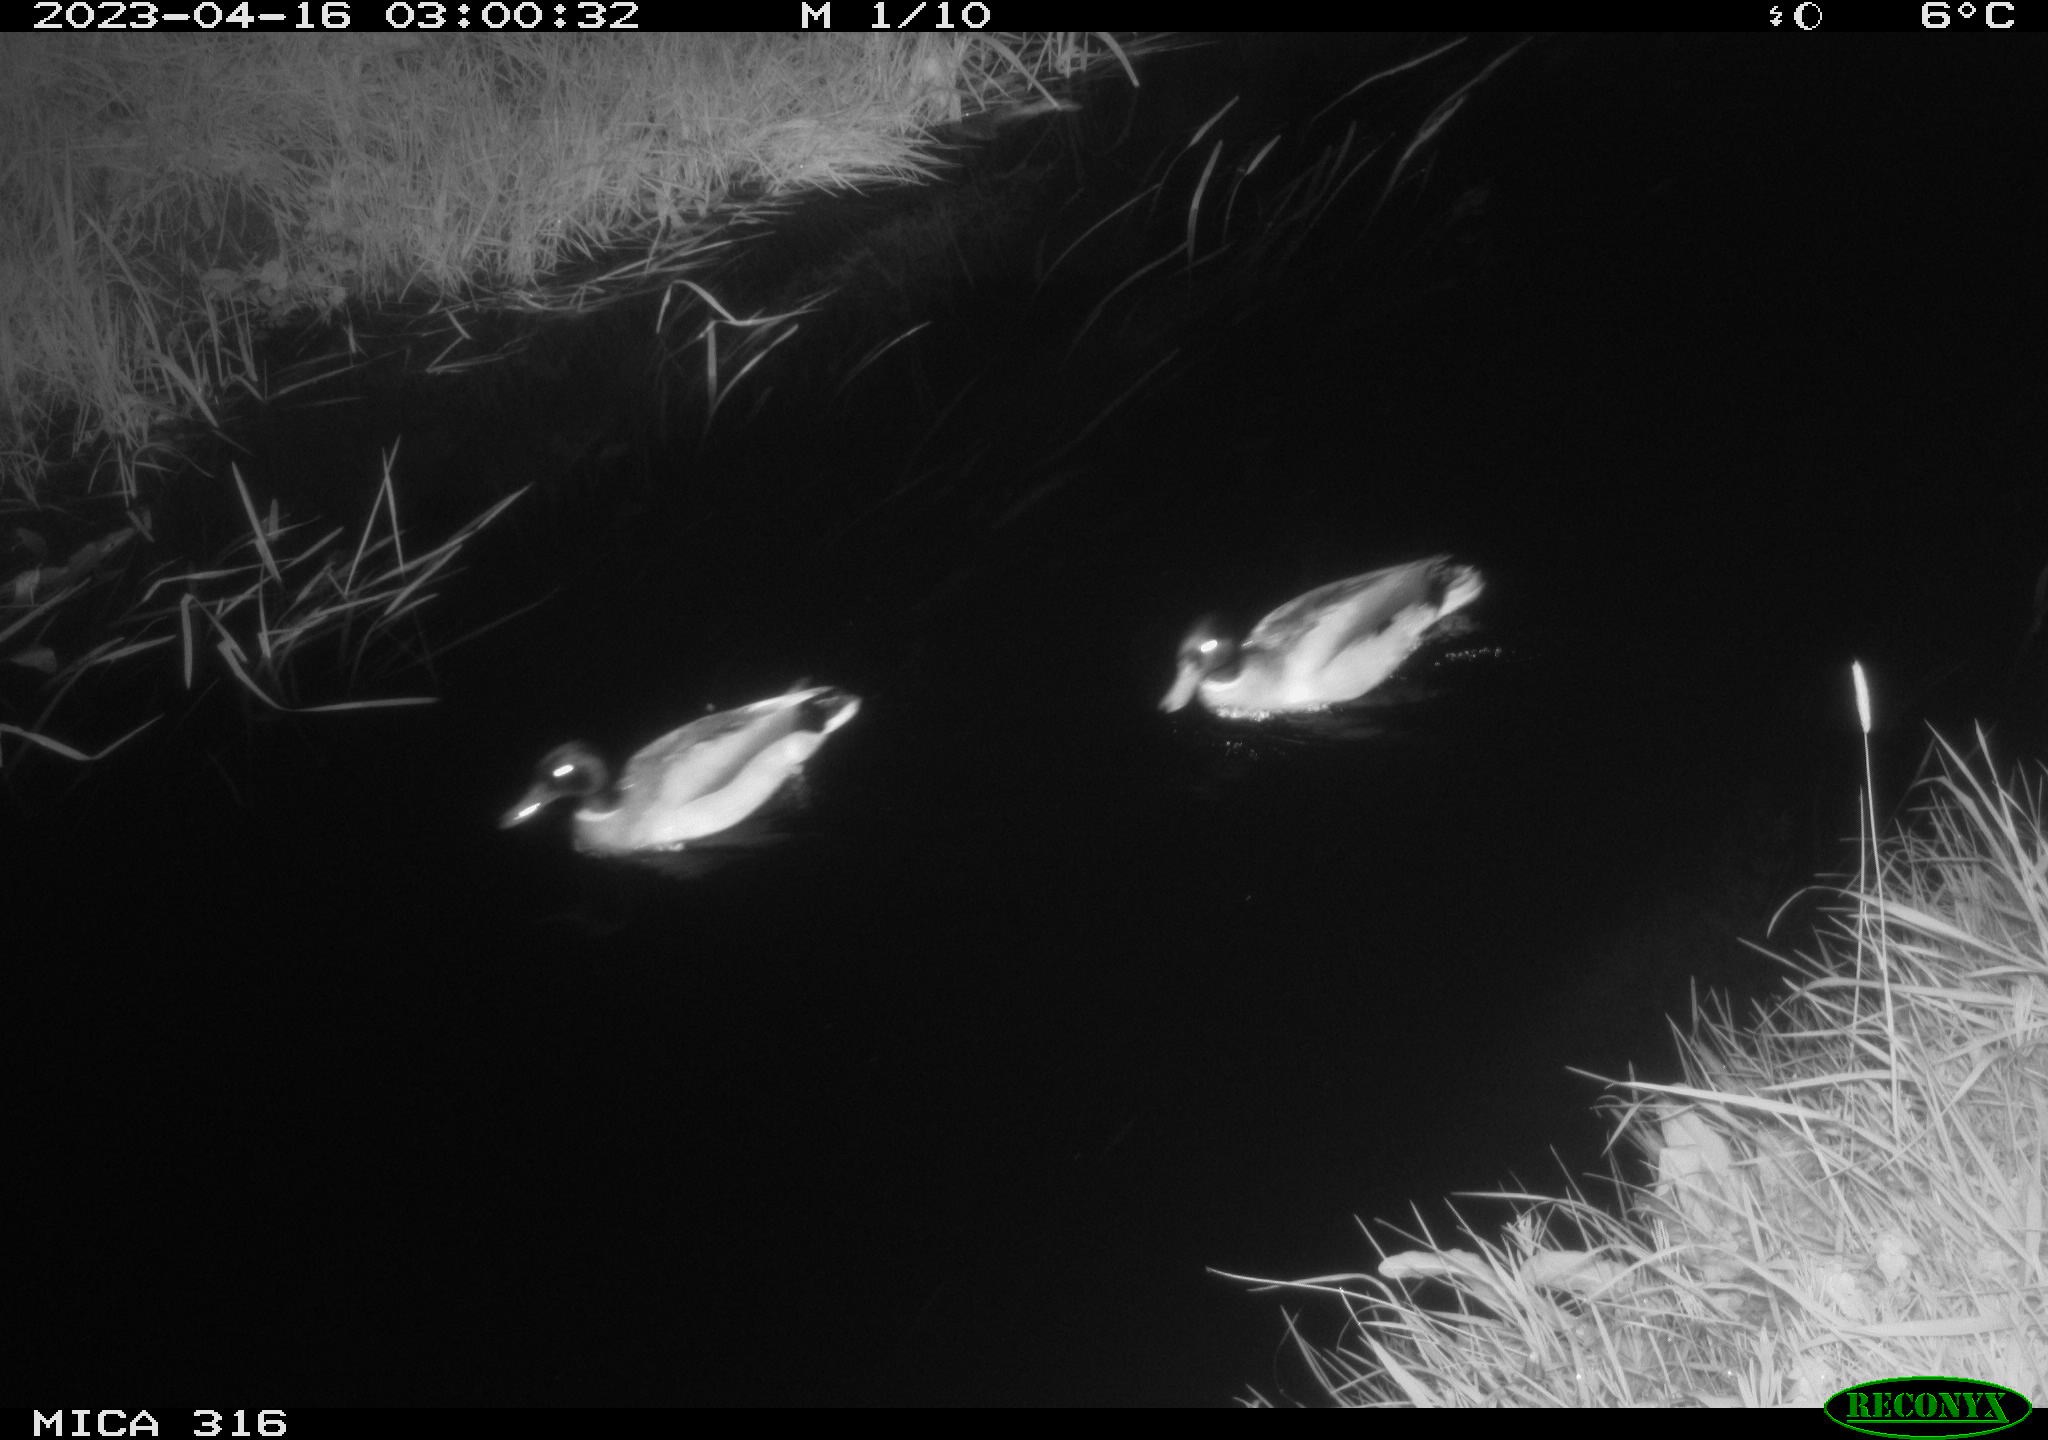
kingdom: Animalia
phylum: Chordata
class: Aves
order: Anseriformes
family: Anatidae
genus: Anas
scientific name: Anas
